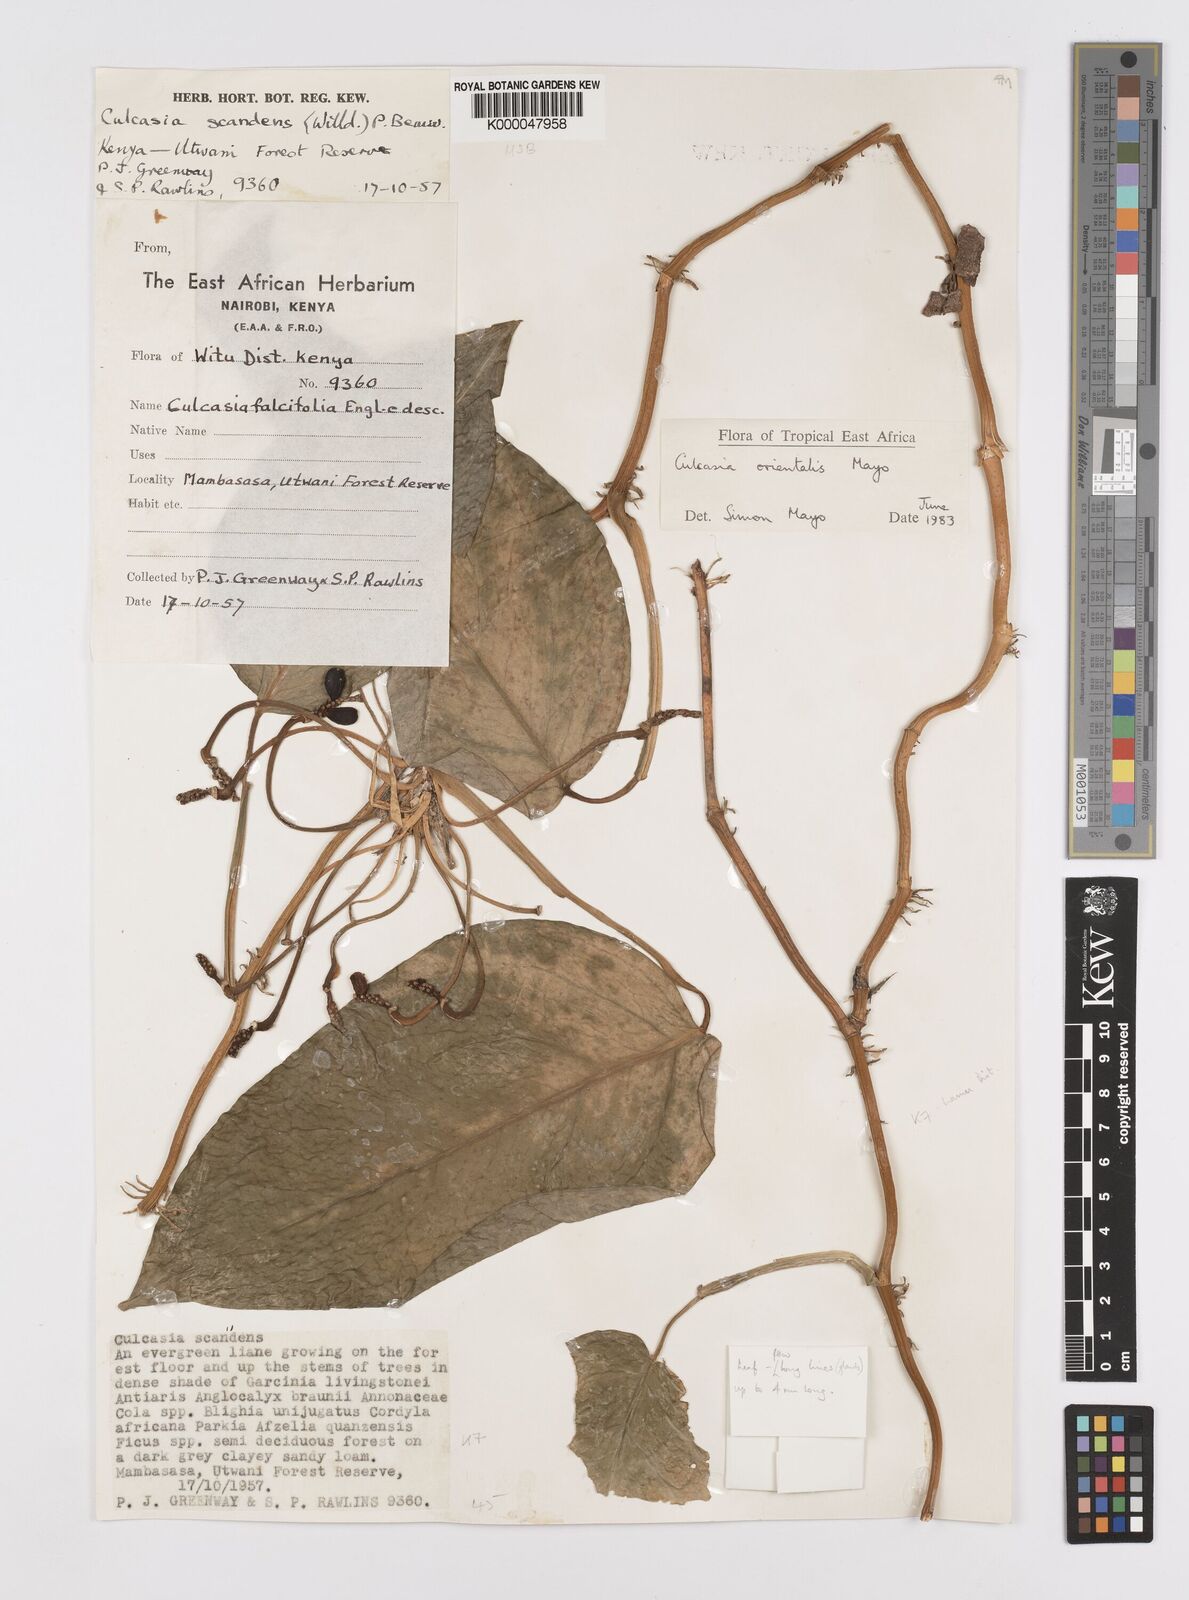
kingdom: Plantae
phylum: Tracheophyta
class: Liliopsida
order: Alismatales
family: Araceae
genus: Culcasia
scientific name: Culcasia orientalis
